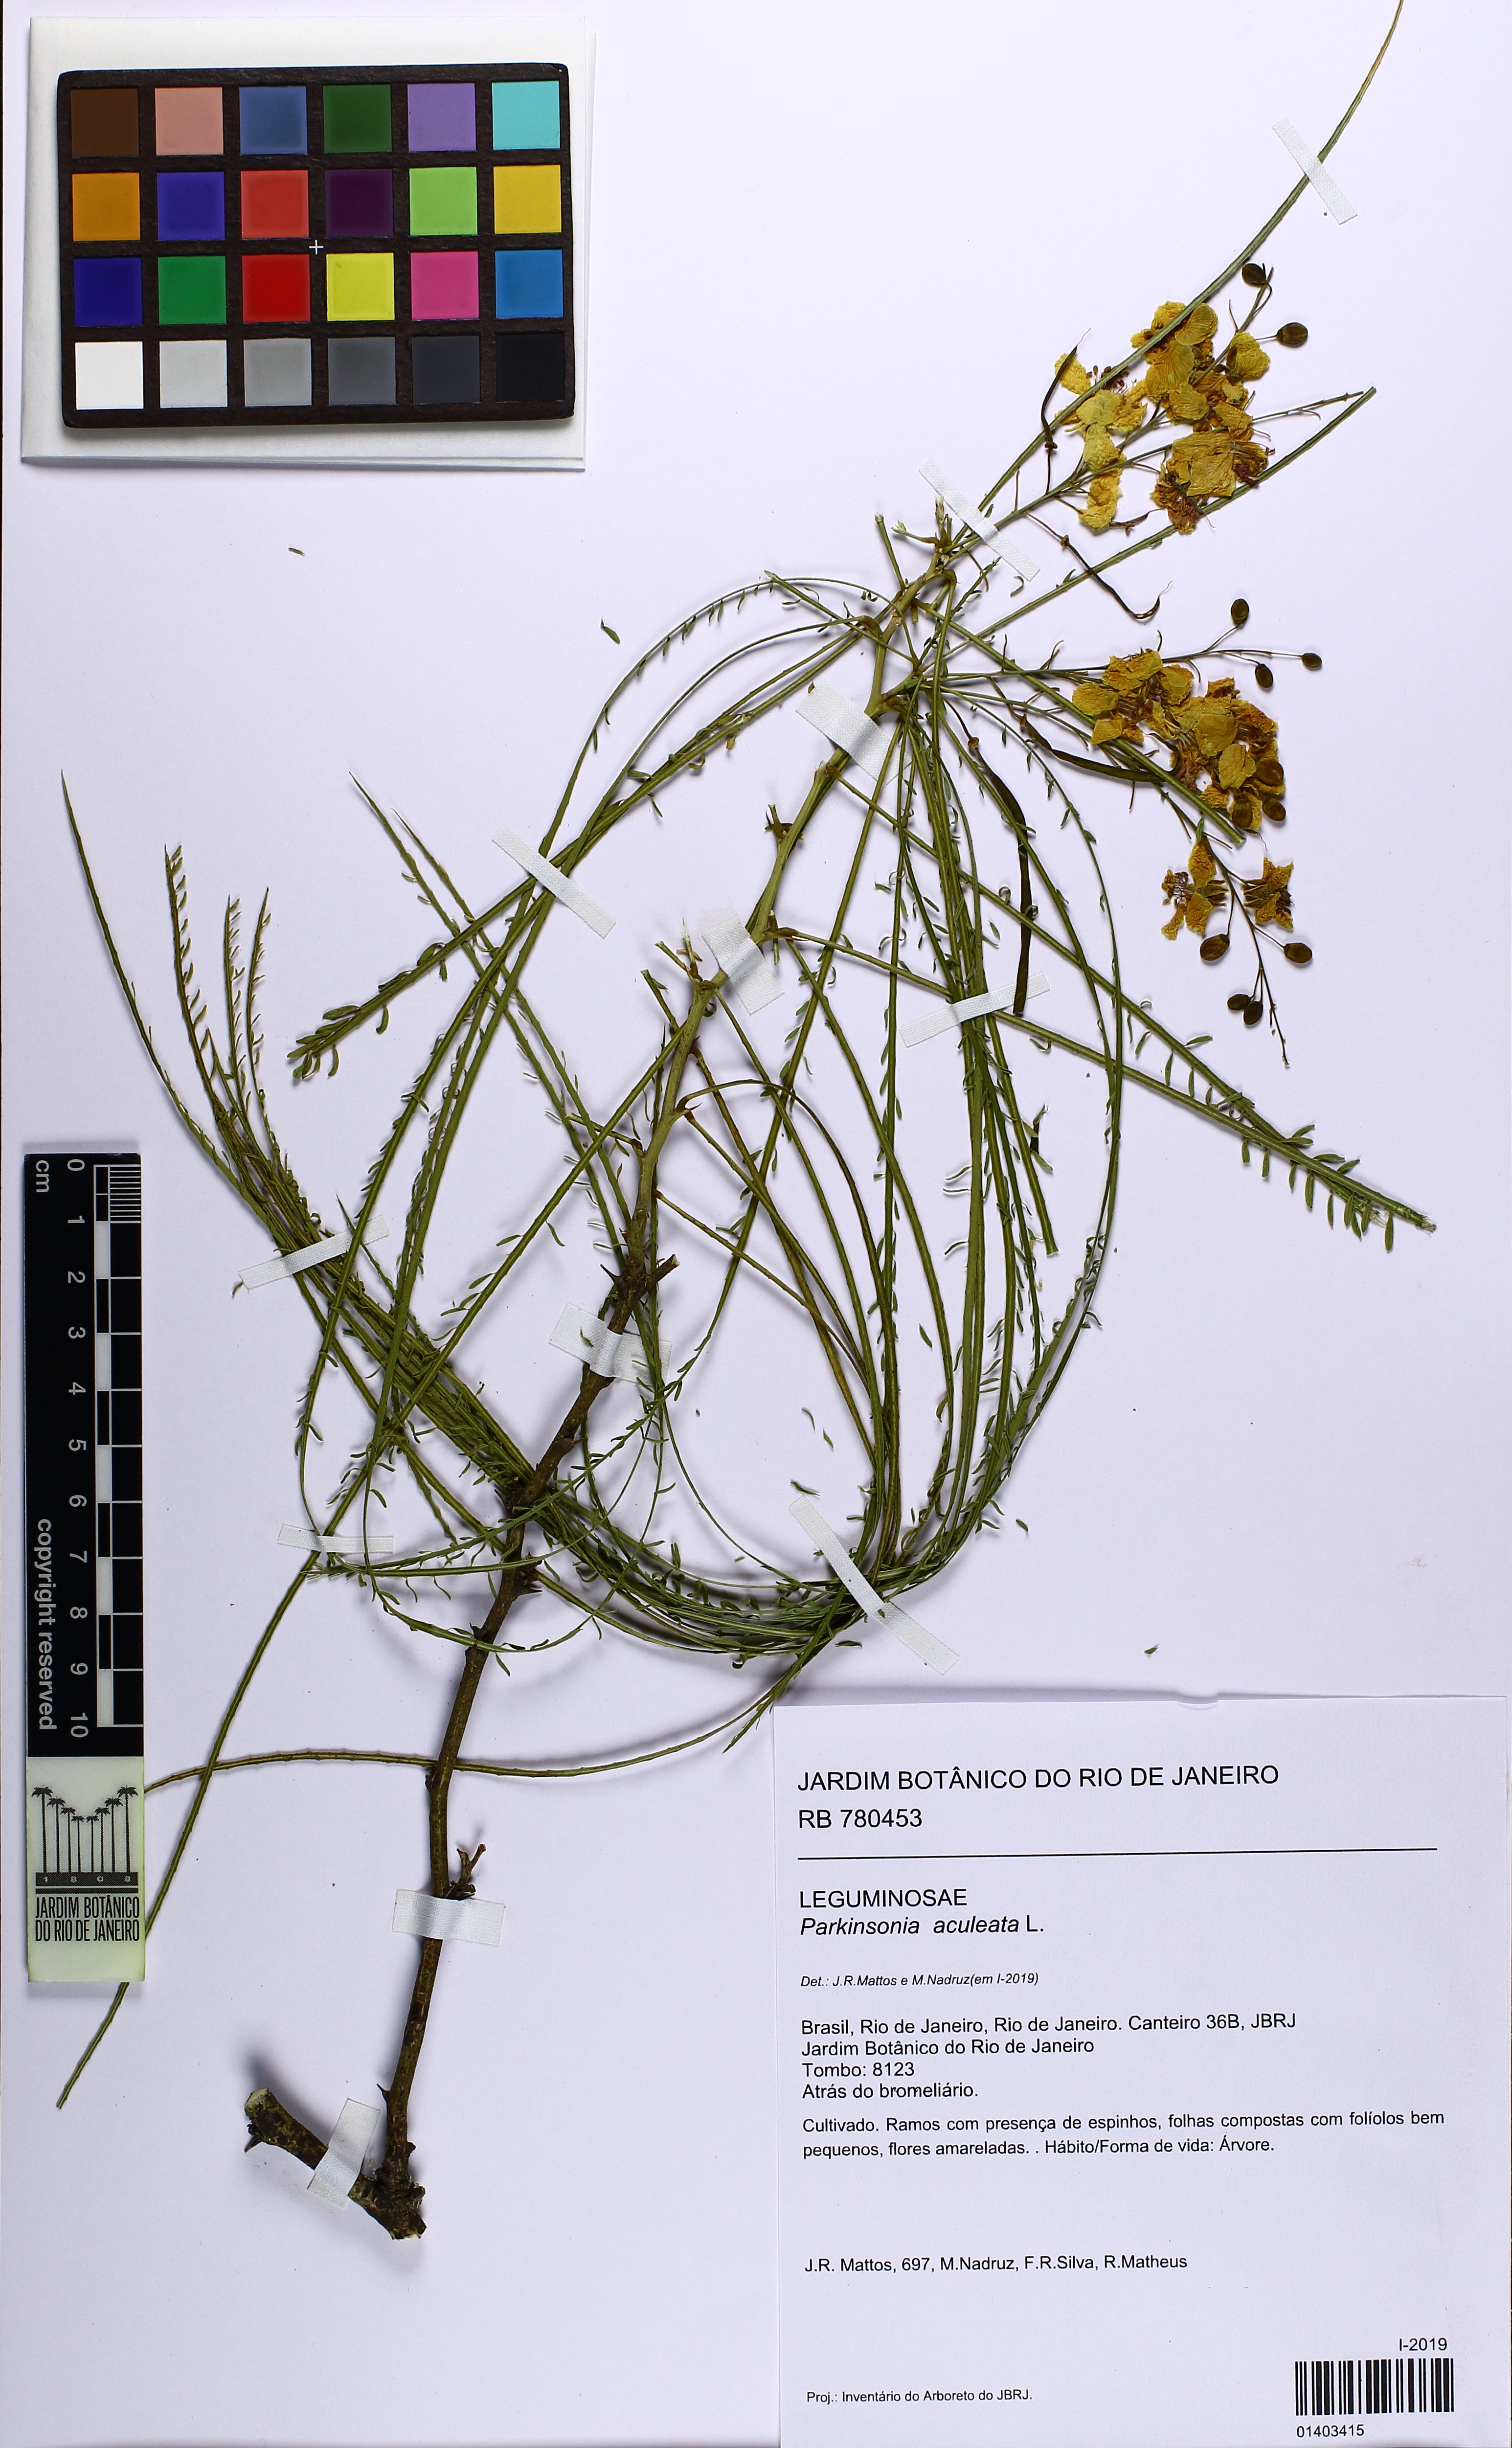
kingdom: Plantae
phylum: Tracheophyta
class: Magnoliopsida
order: Fabales
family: Fabaceae
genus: Parkinsonia
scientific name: Parkinsonia aculeata
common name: Jerusalem thorn
